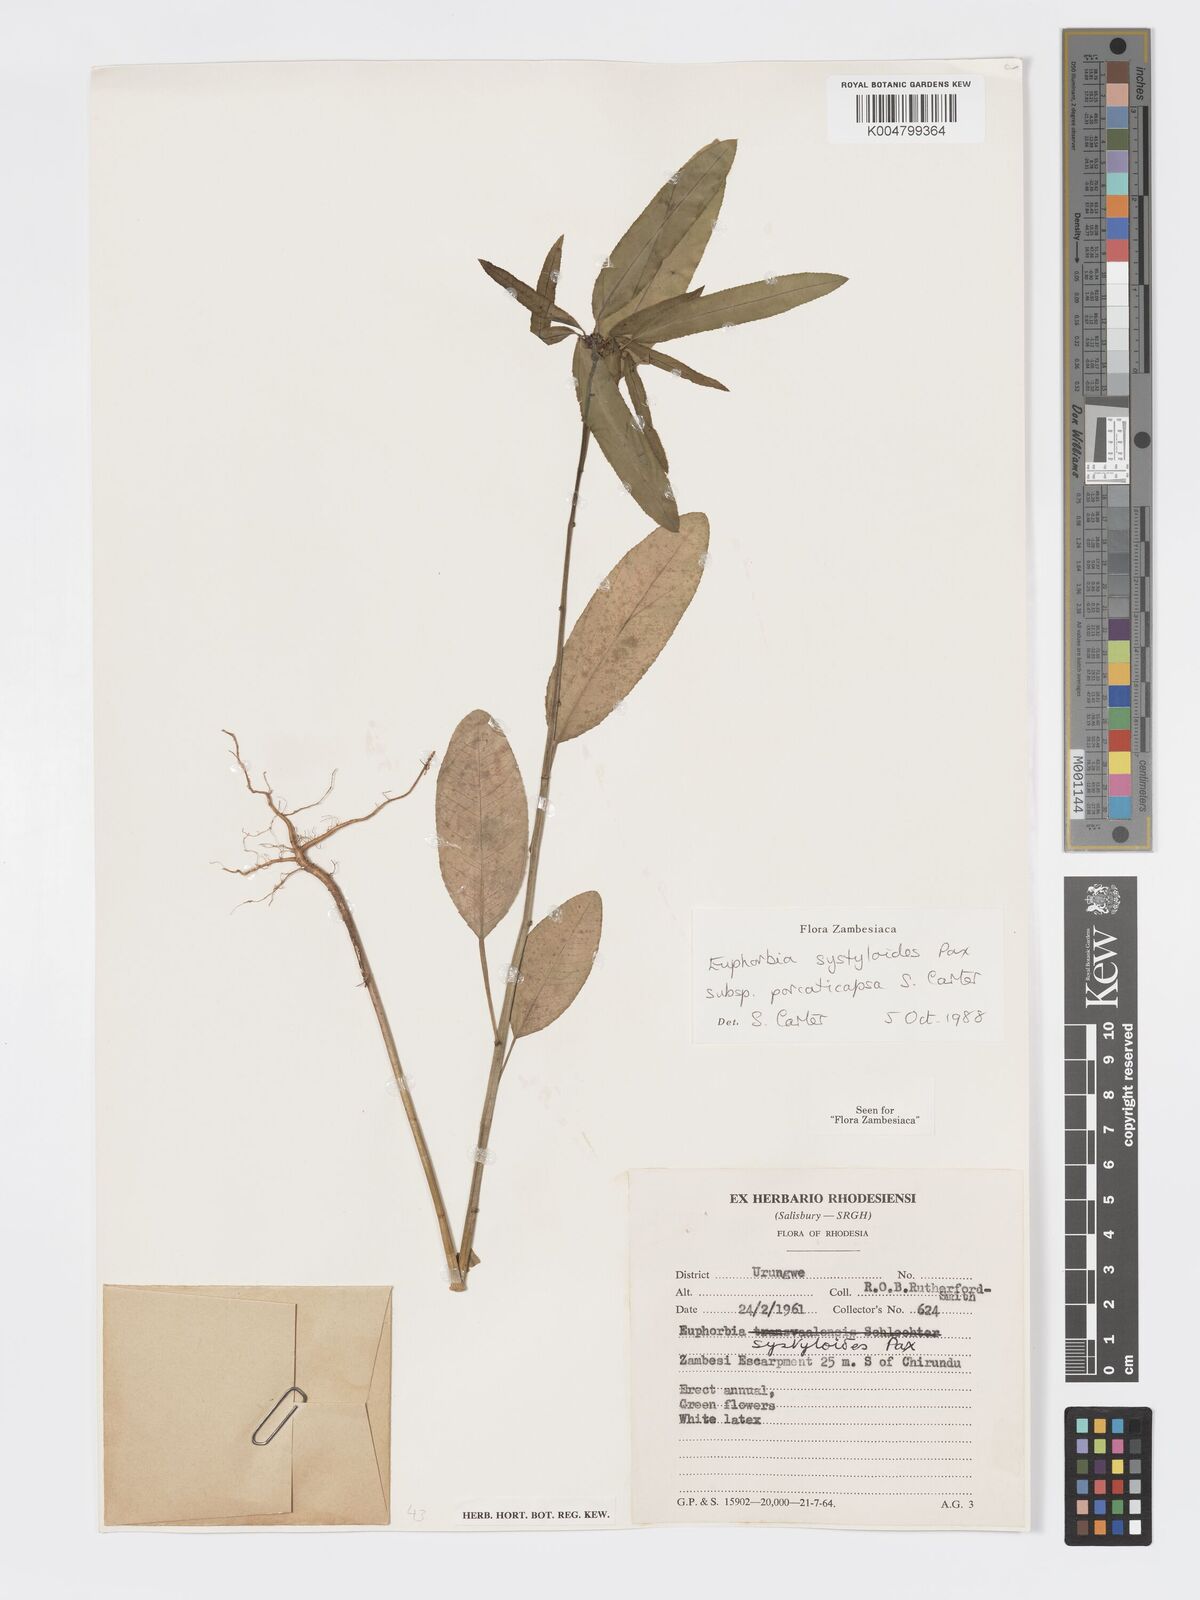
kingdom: Plantae
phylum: Tracheophyta
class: Magnoliopsida
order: Malpighiales
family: Euphorbiaceae
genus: Euphorbia
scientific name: Euphorbia systyloides
